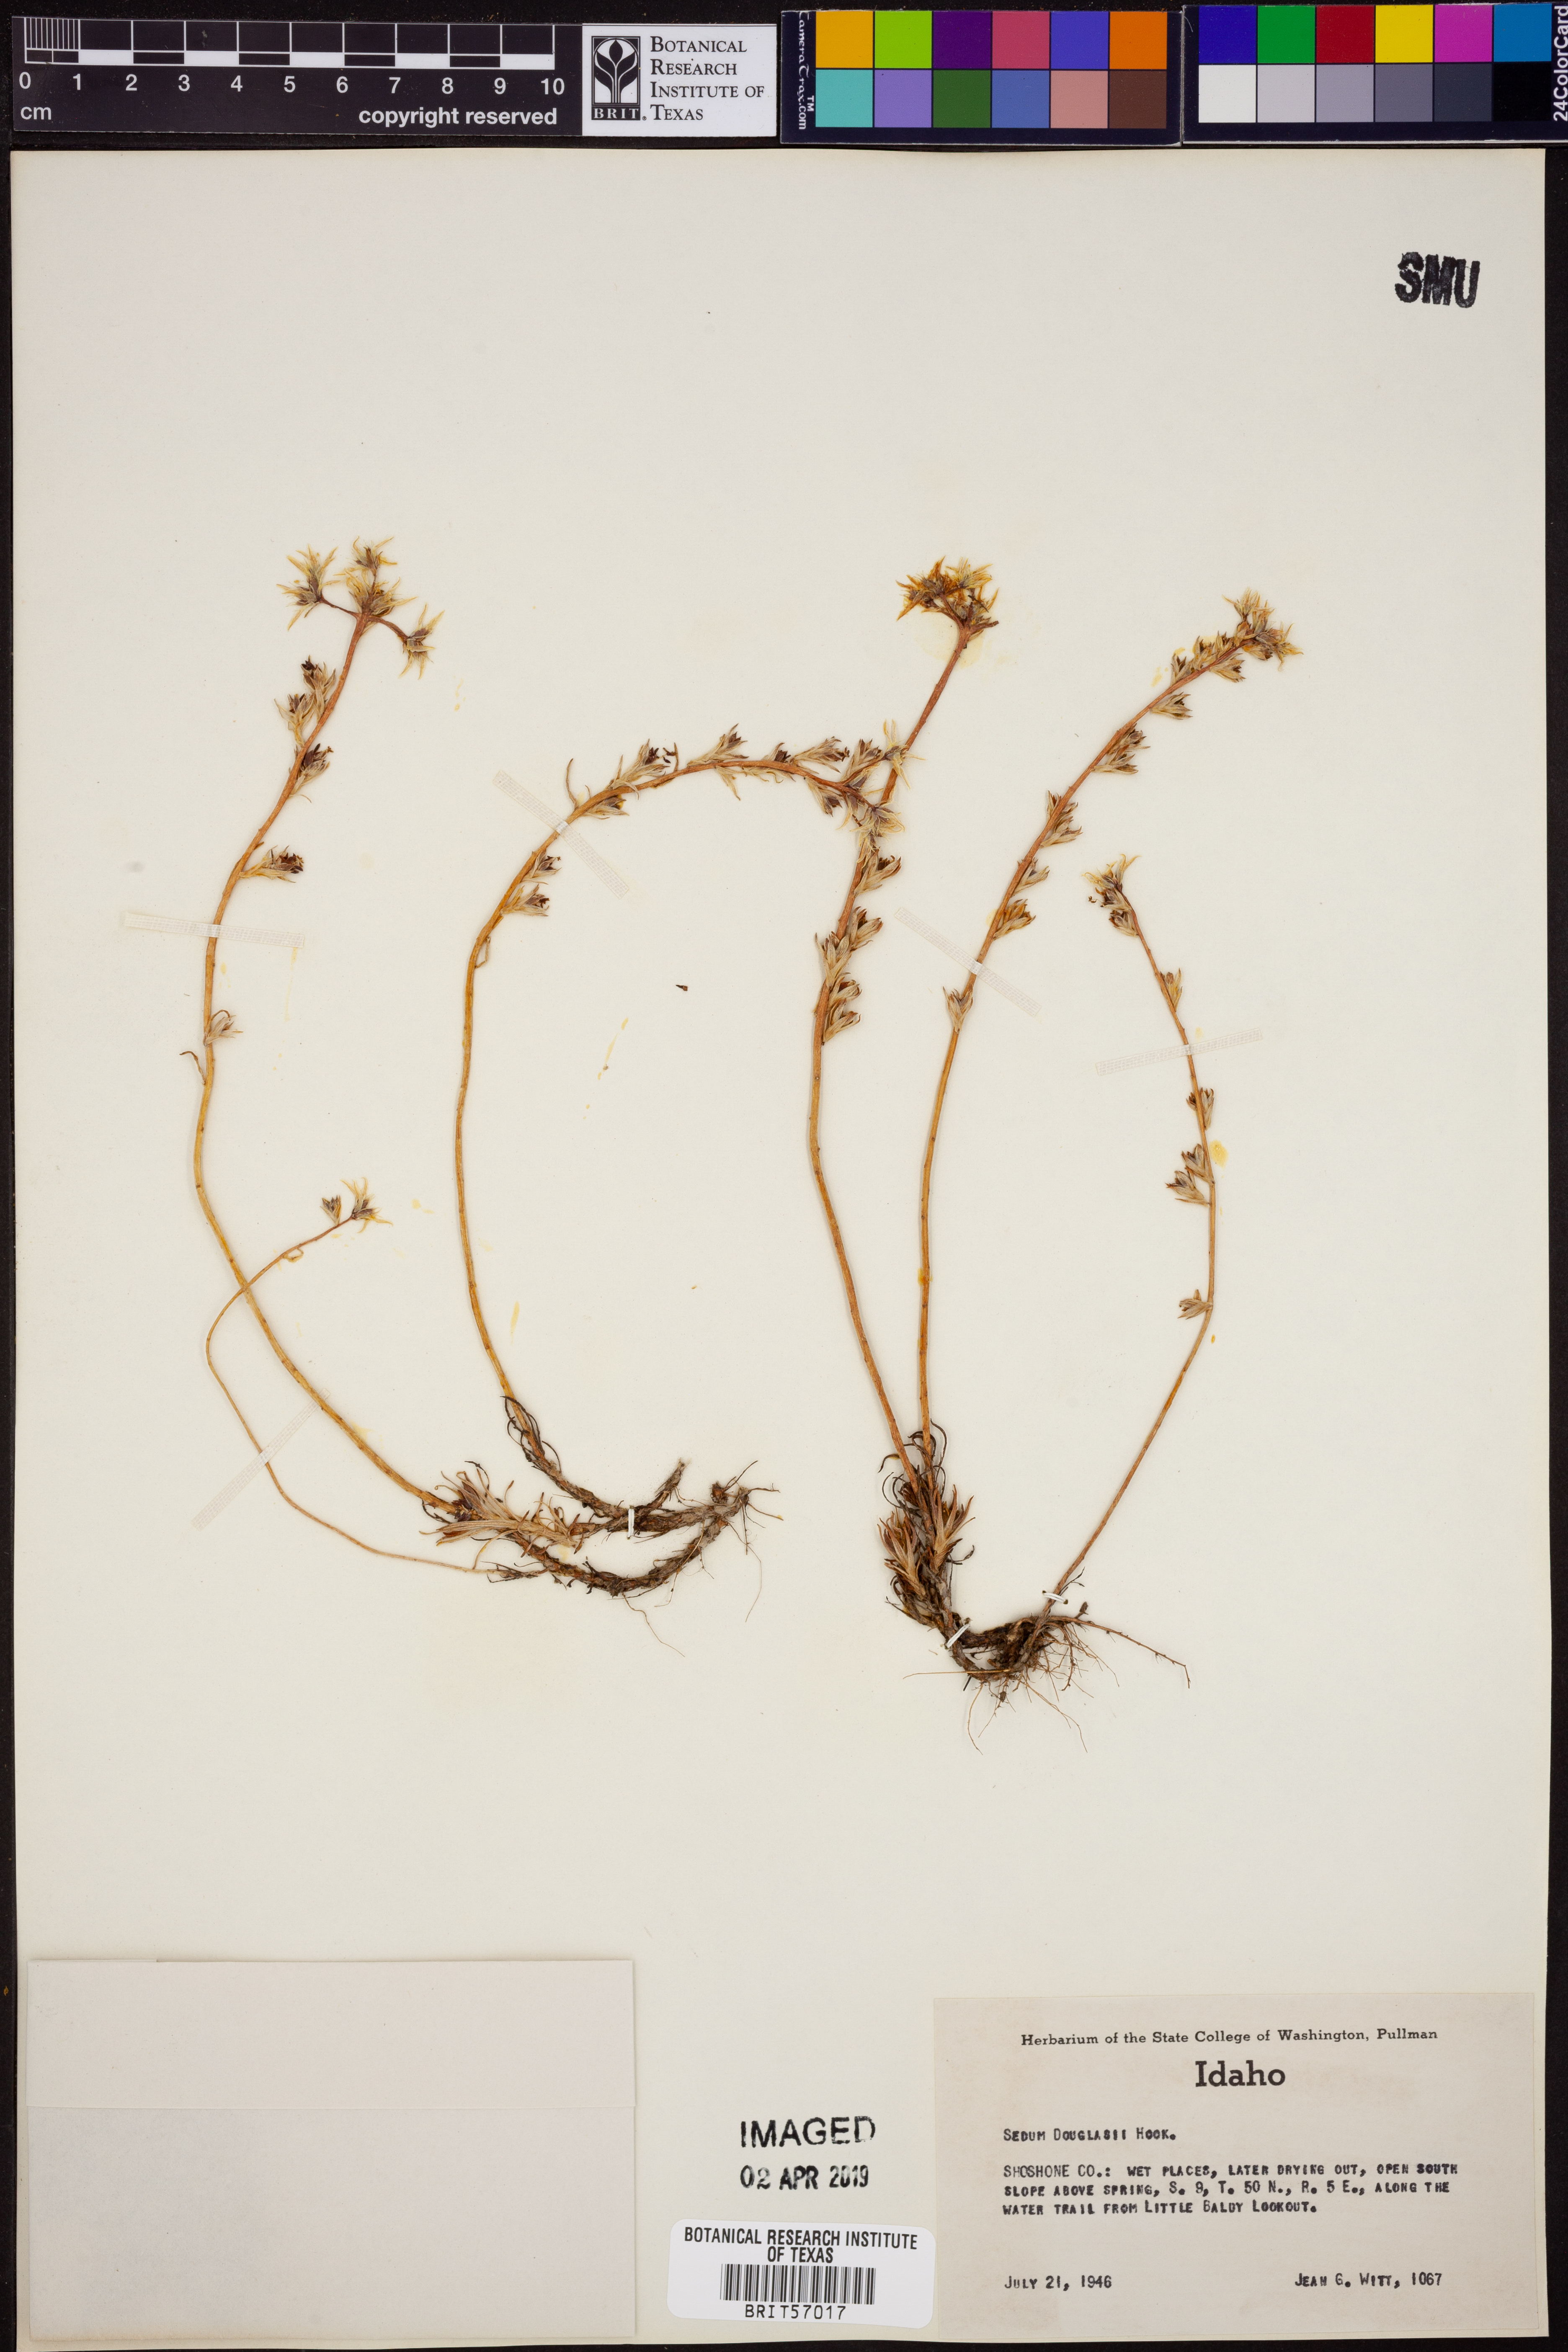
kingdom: Plantae
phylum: Tracheophyta
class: Magnoliopsida
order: Saxifragales
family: Crassulaceae
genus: Sedum
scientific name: Sedum stenopetalum
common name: Narrow-petaled stonecrop
